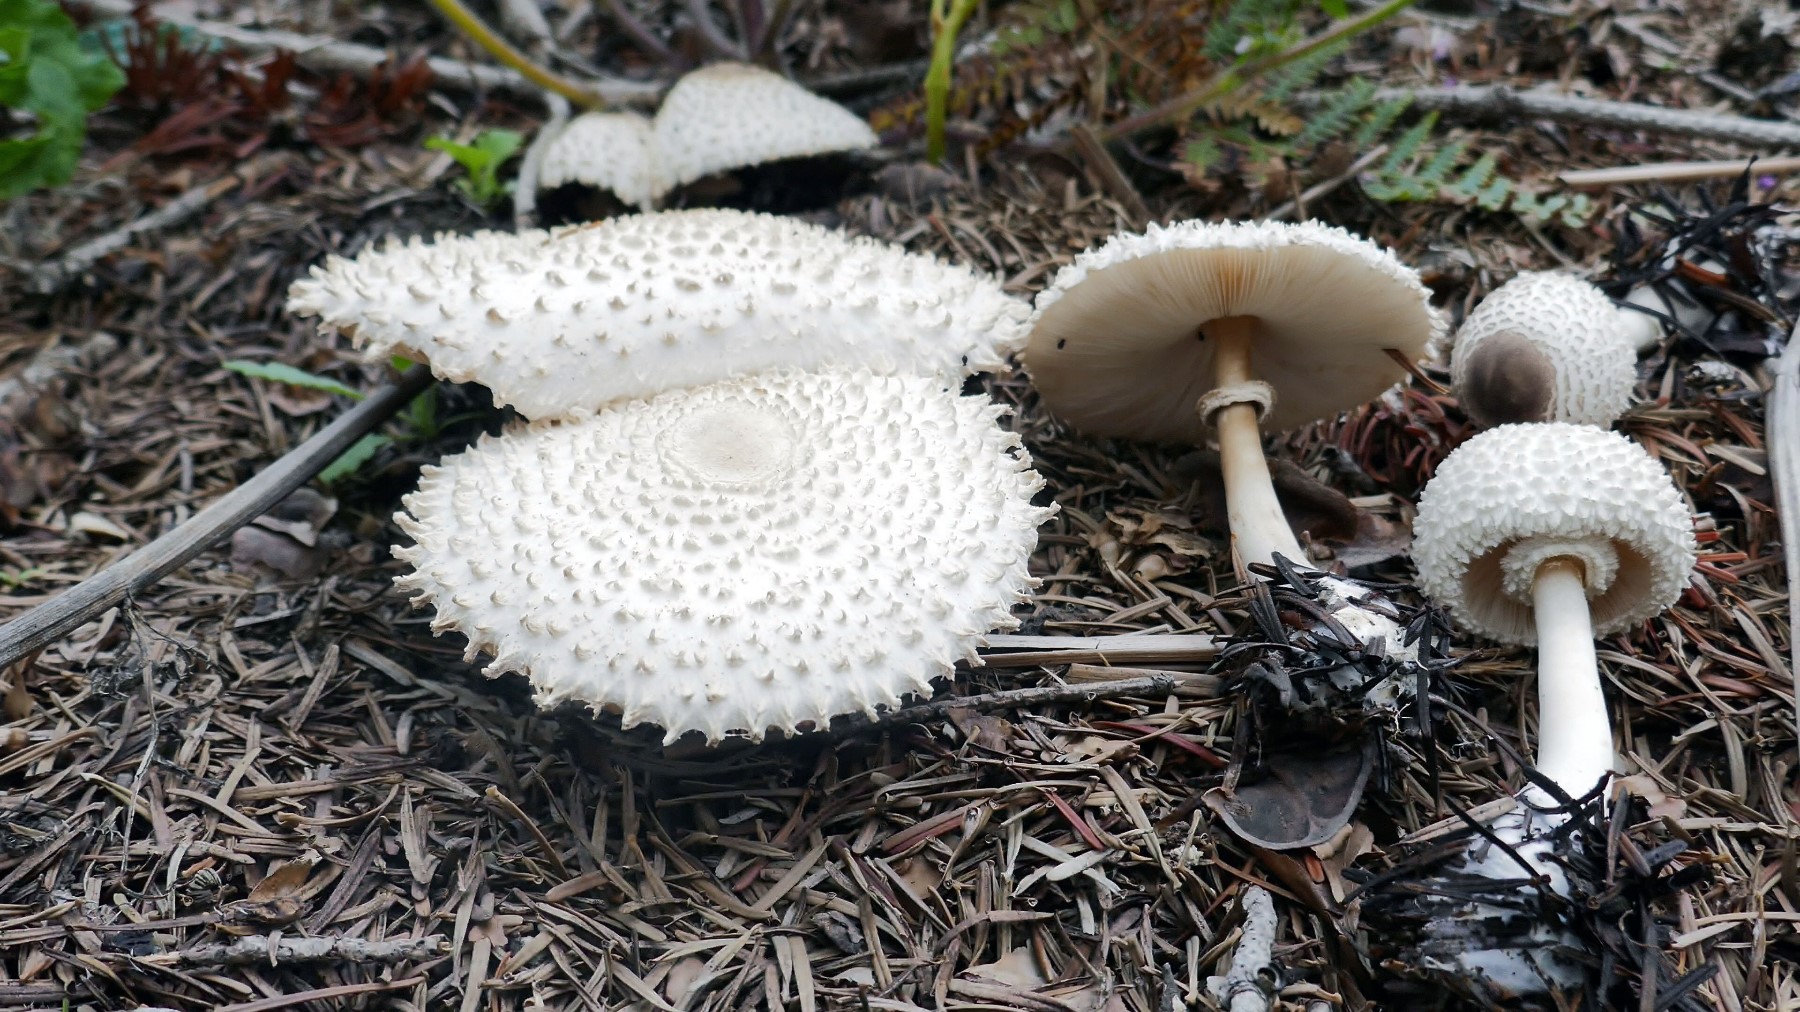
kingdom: Fungi
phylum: Basidiomycota
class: Agaricomycetes
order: Agaricales
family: Agaricaceae
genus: Leucoagaricus
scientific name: Leucoagaricus nympharum
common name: gran-silkehat
